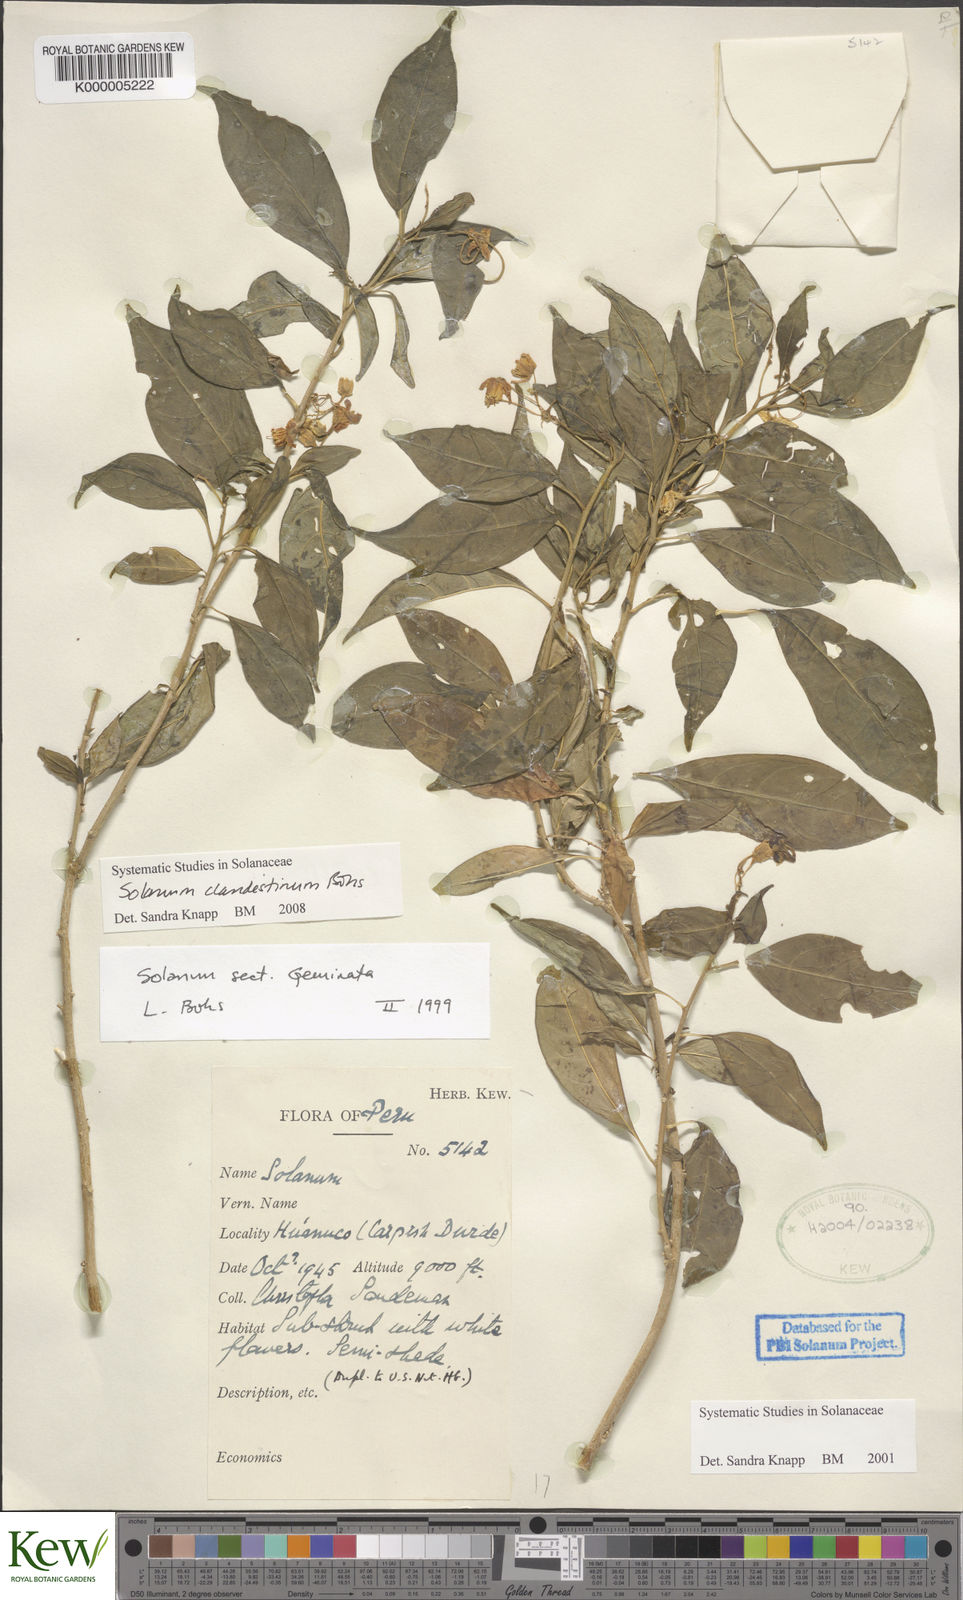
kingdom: Plantae
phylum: Tracheophyta
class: Magnoliopsida
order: Solanales
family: Solanaceae
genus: Solanum
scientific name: Solanum clandestinum
